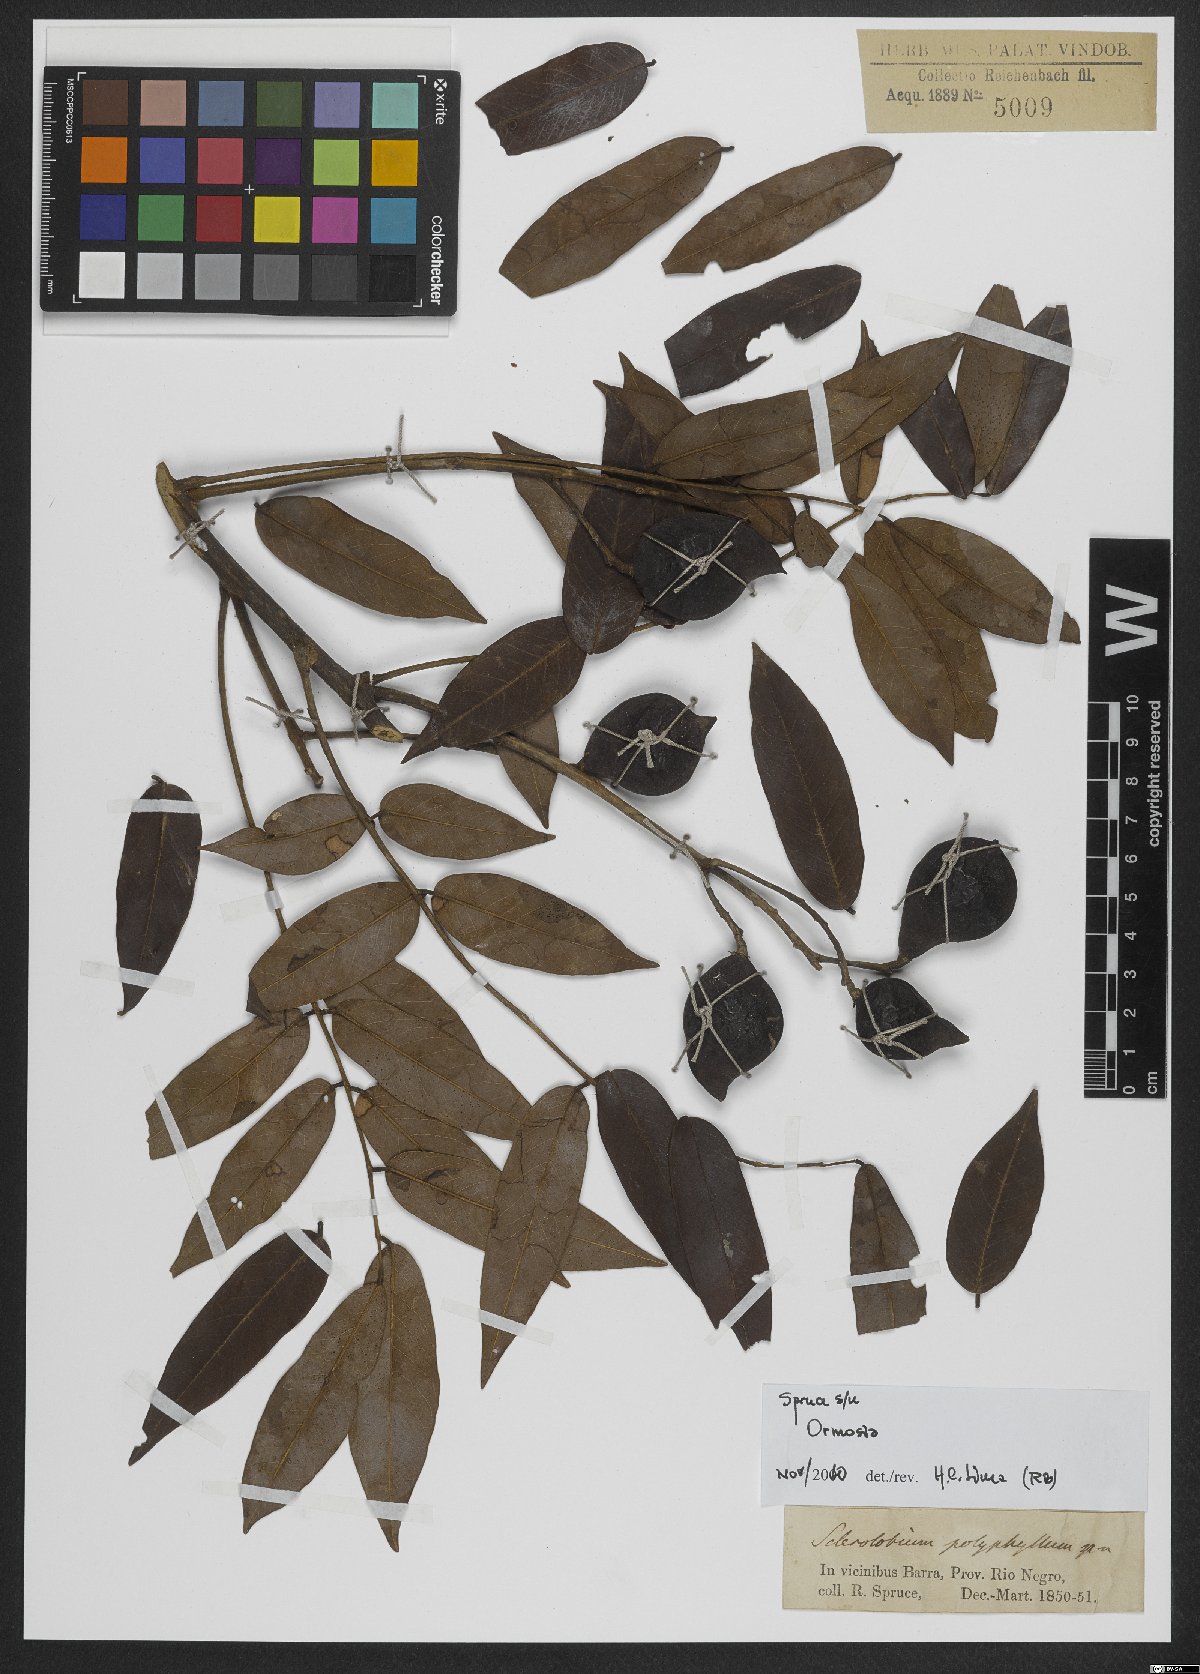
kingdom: Plantae
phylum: Tracheophyta
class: Magnoliopsida
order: Fabales
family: Fabaceae
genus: Ormosia
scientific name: Ormosia
